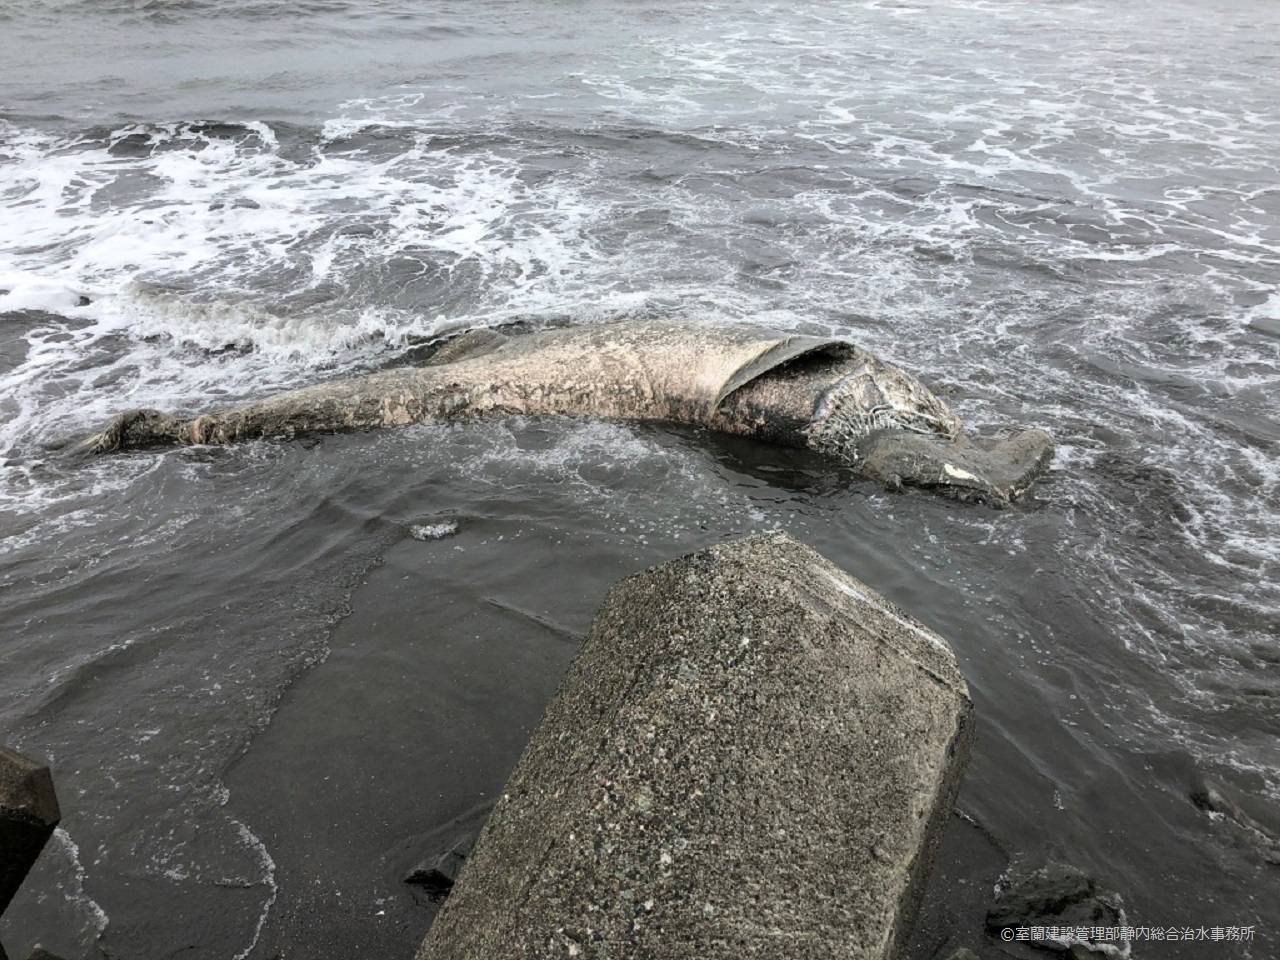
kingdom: Animalia
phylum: Chordata
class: Mammalia
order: Cetacea
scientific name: Cetacea
